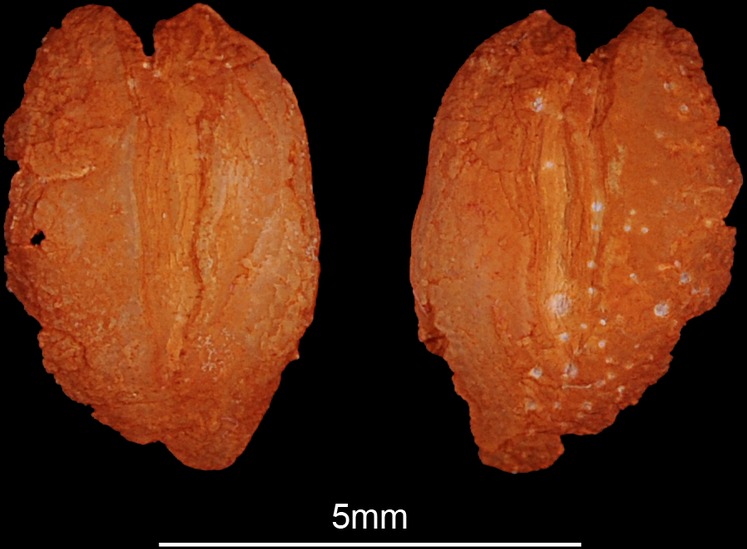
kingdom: Animalia
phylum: Chordata
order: Anguilliformes
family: Muraenidae
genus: Gymnothorax
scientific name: Gymnothorax nigromarginatus
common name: Blackedge moray
